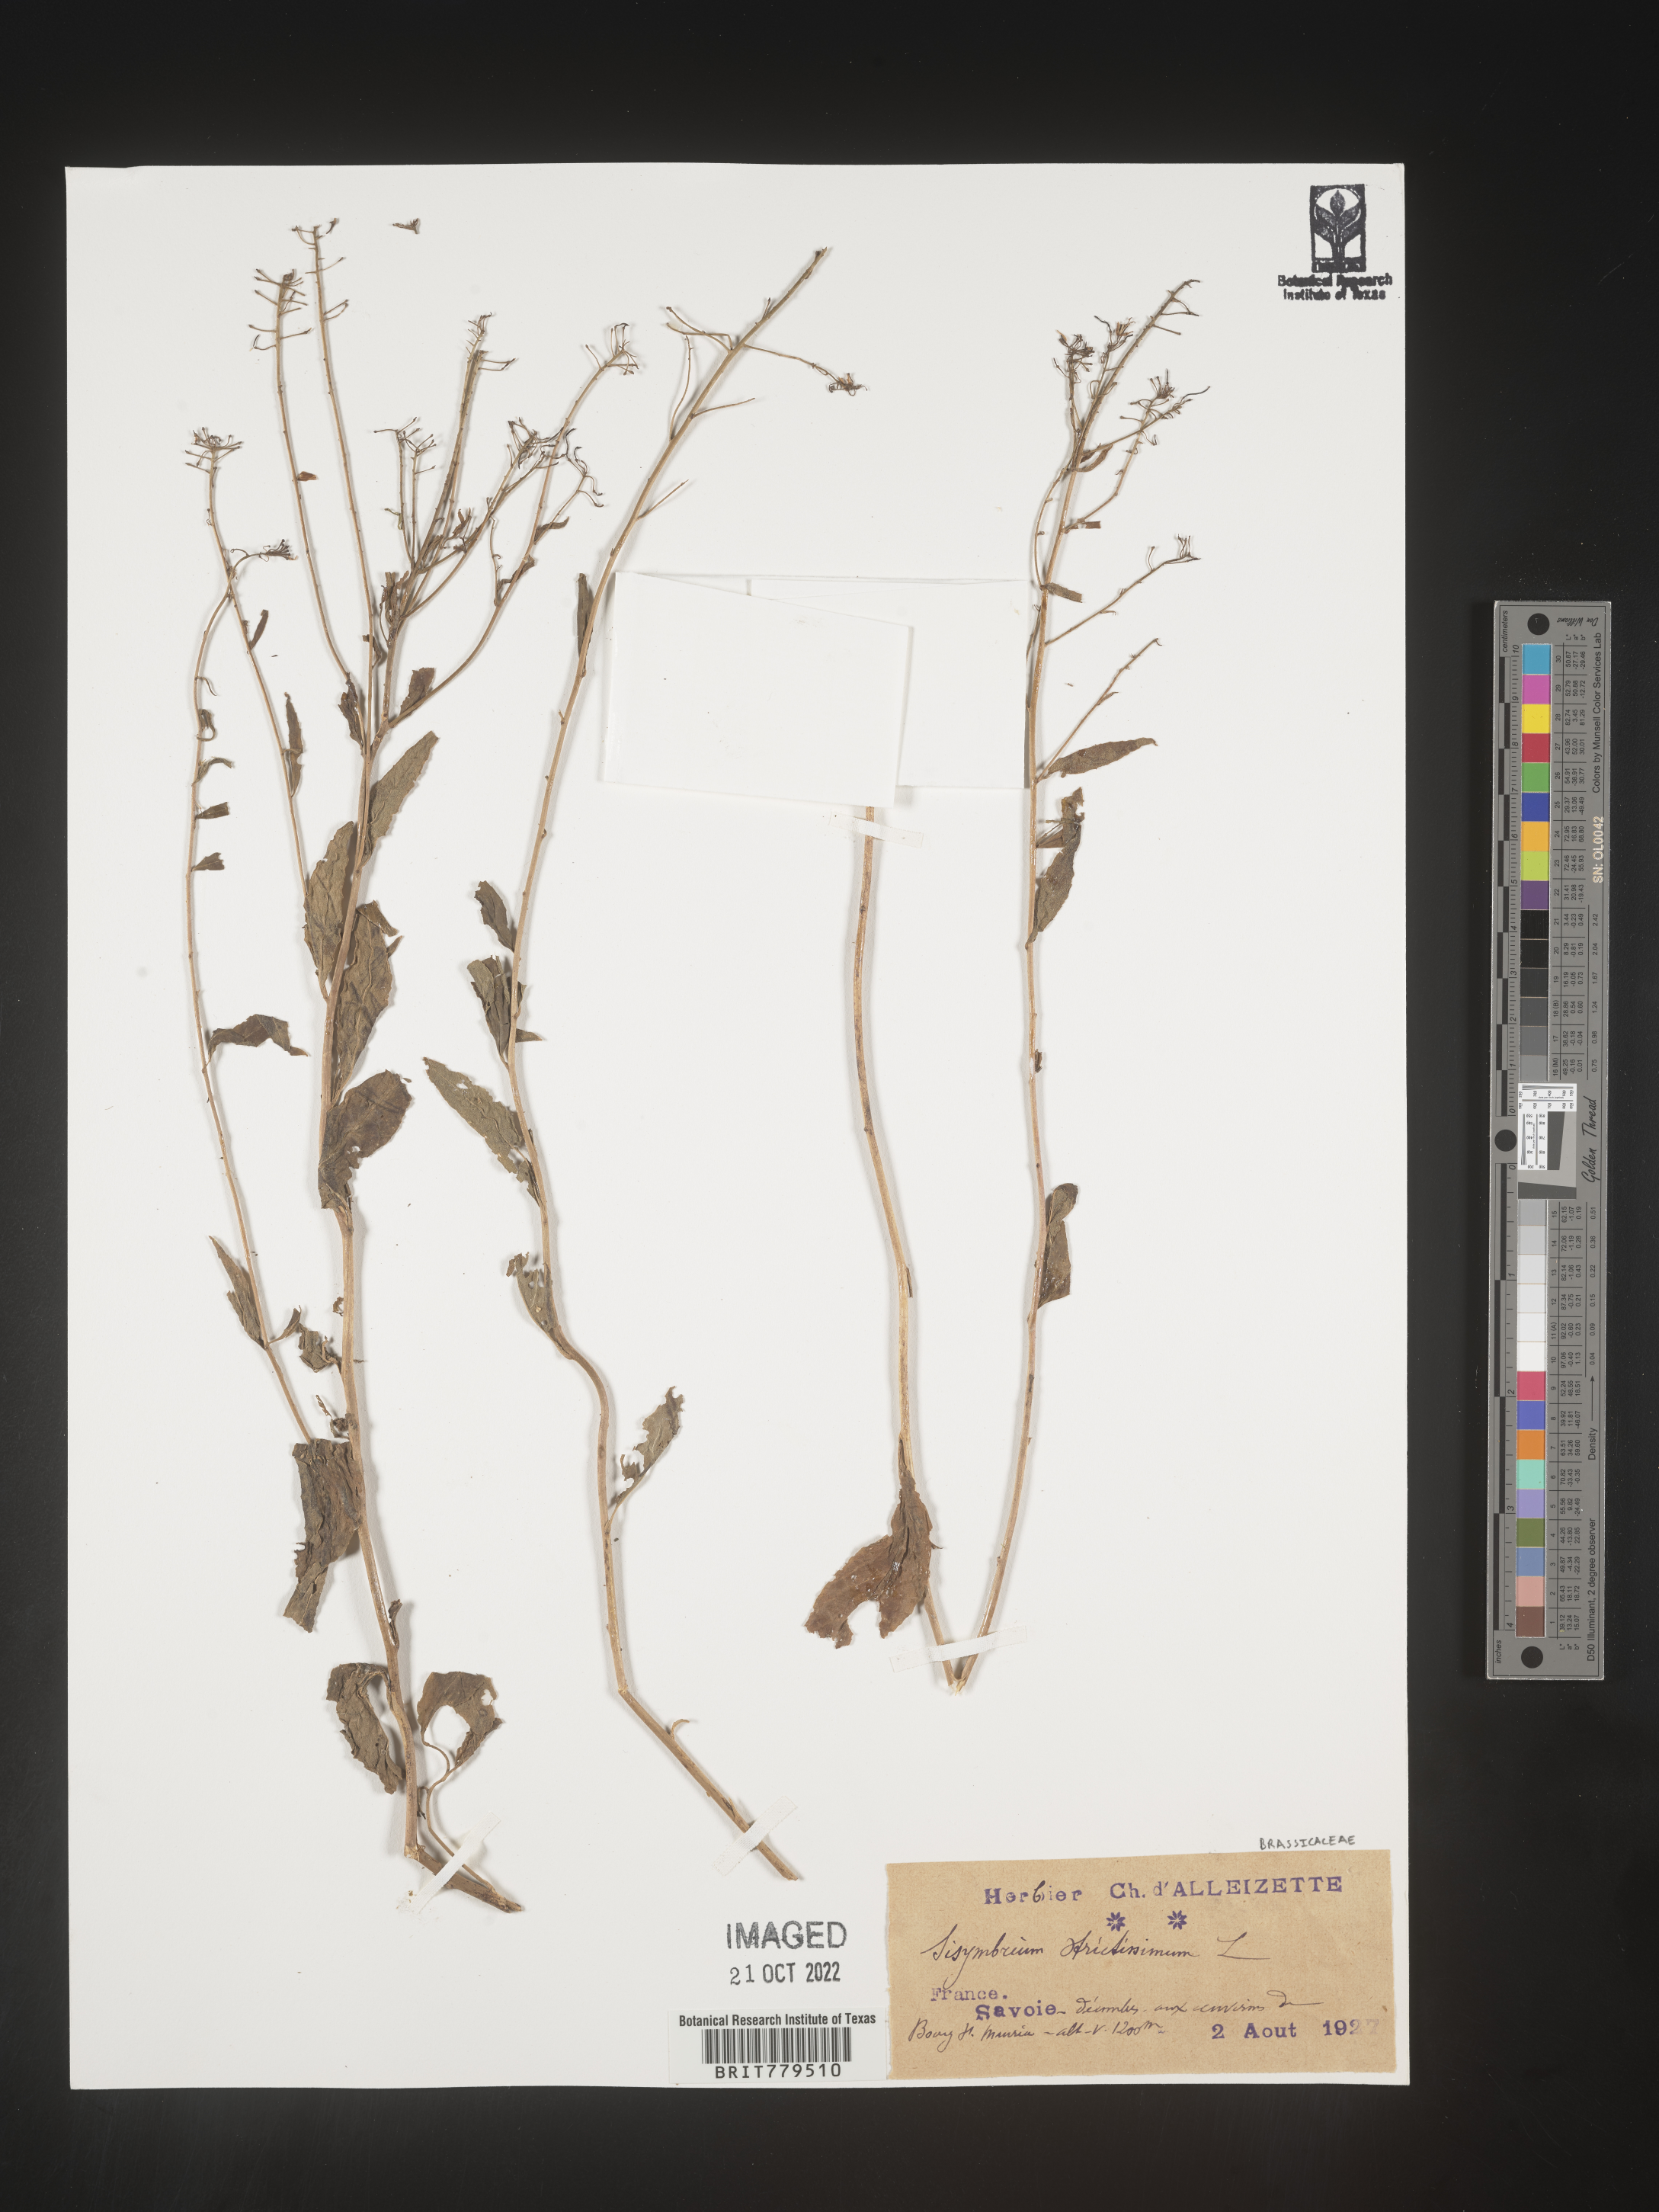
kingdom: Plantae
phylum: Tracheophyta
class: Magnoliopsida
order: Brassicales
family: Brassicaceae
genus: Sisymbrium
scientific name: Sisymbrium
